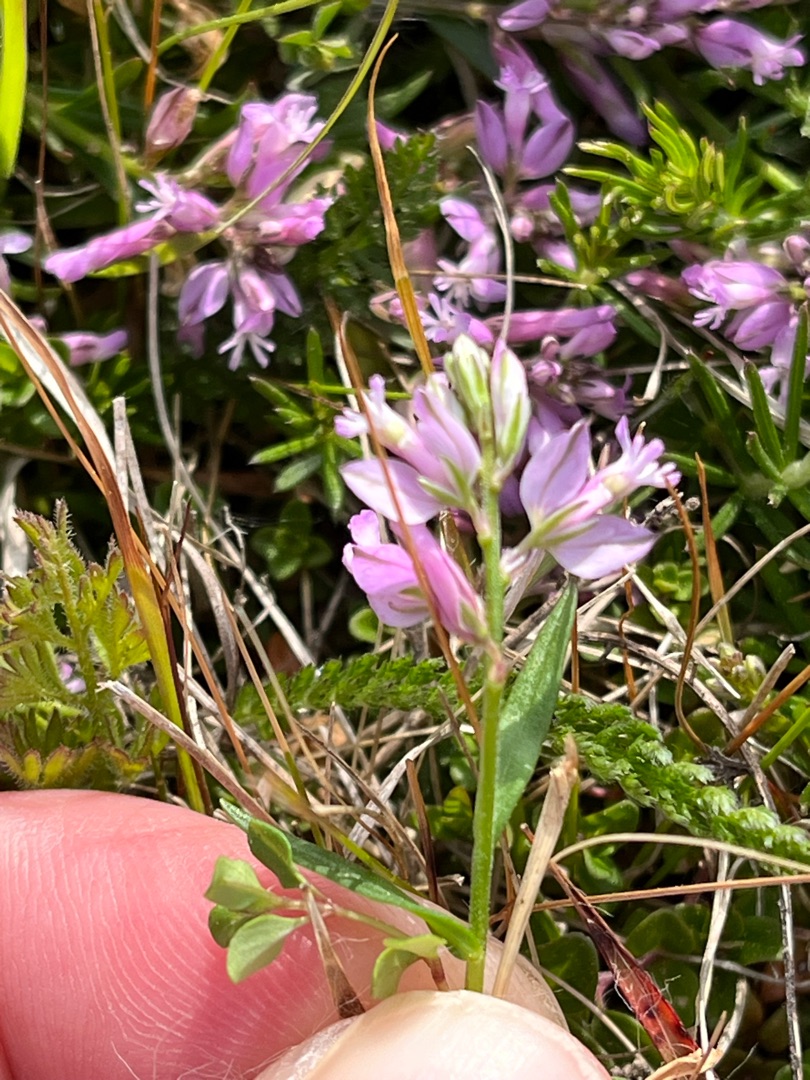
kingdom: Plantae
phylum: Tracheophyta
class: Magnoliopsida
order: Fabales
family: Polygalaceae
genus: Polygala
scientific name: Polygala vulgaris
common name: Almindelig mælkeurt
